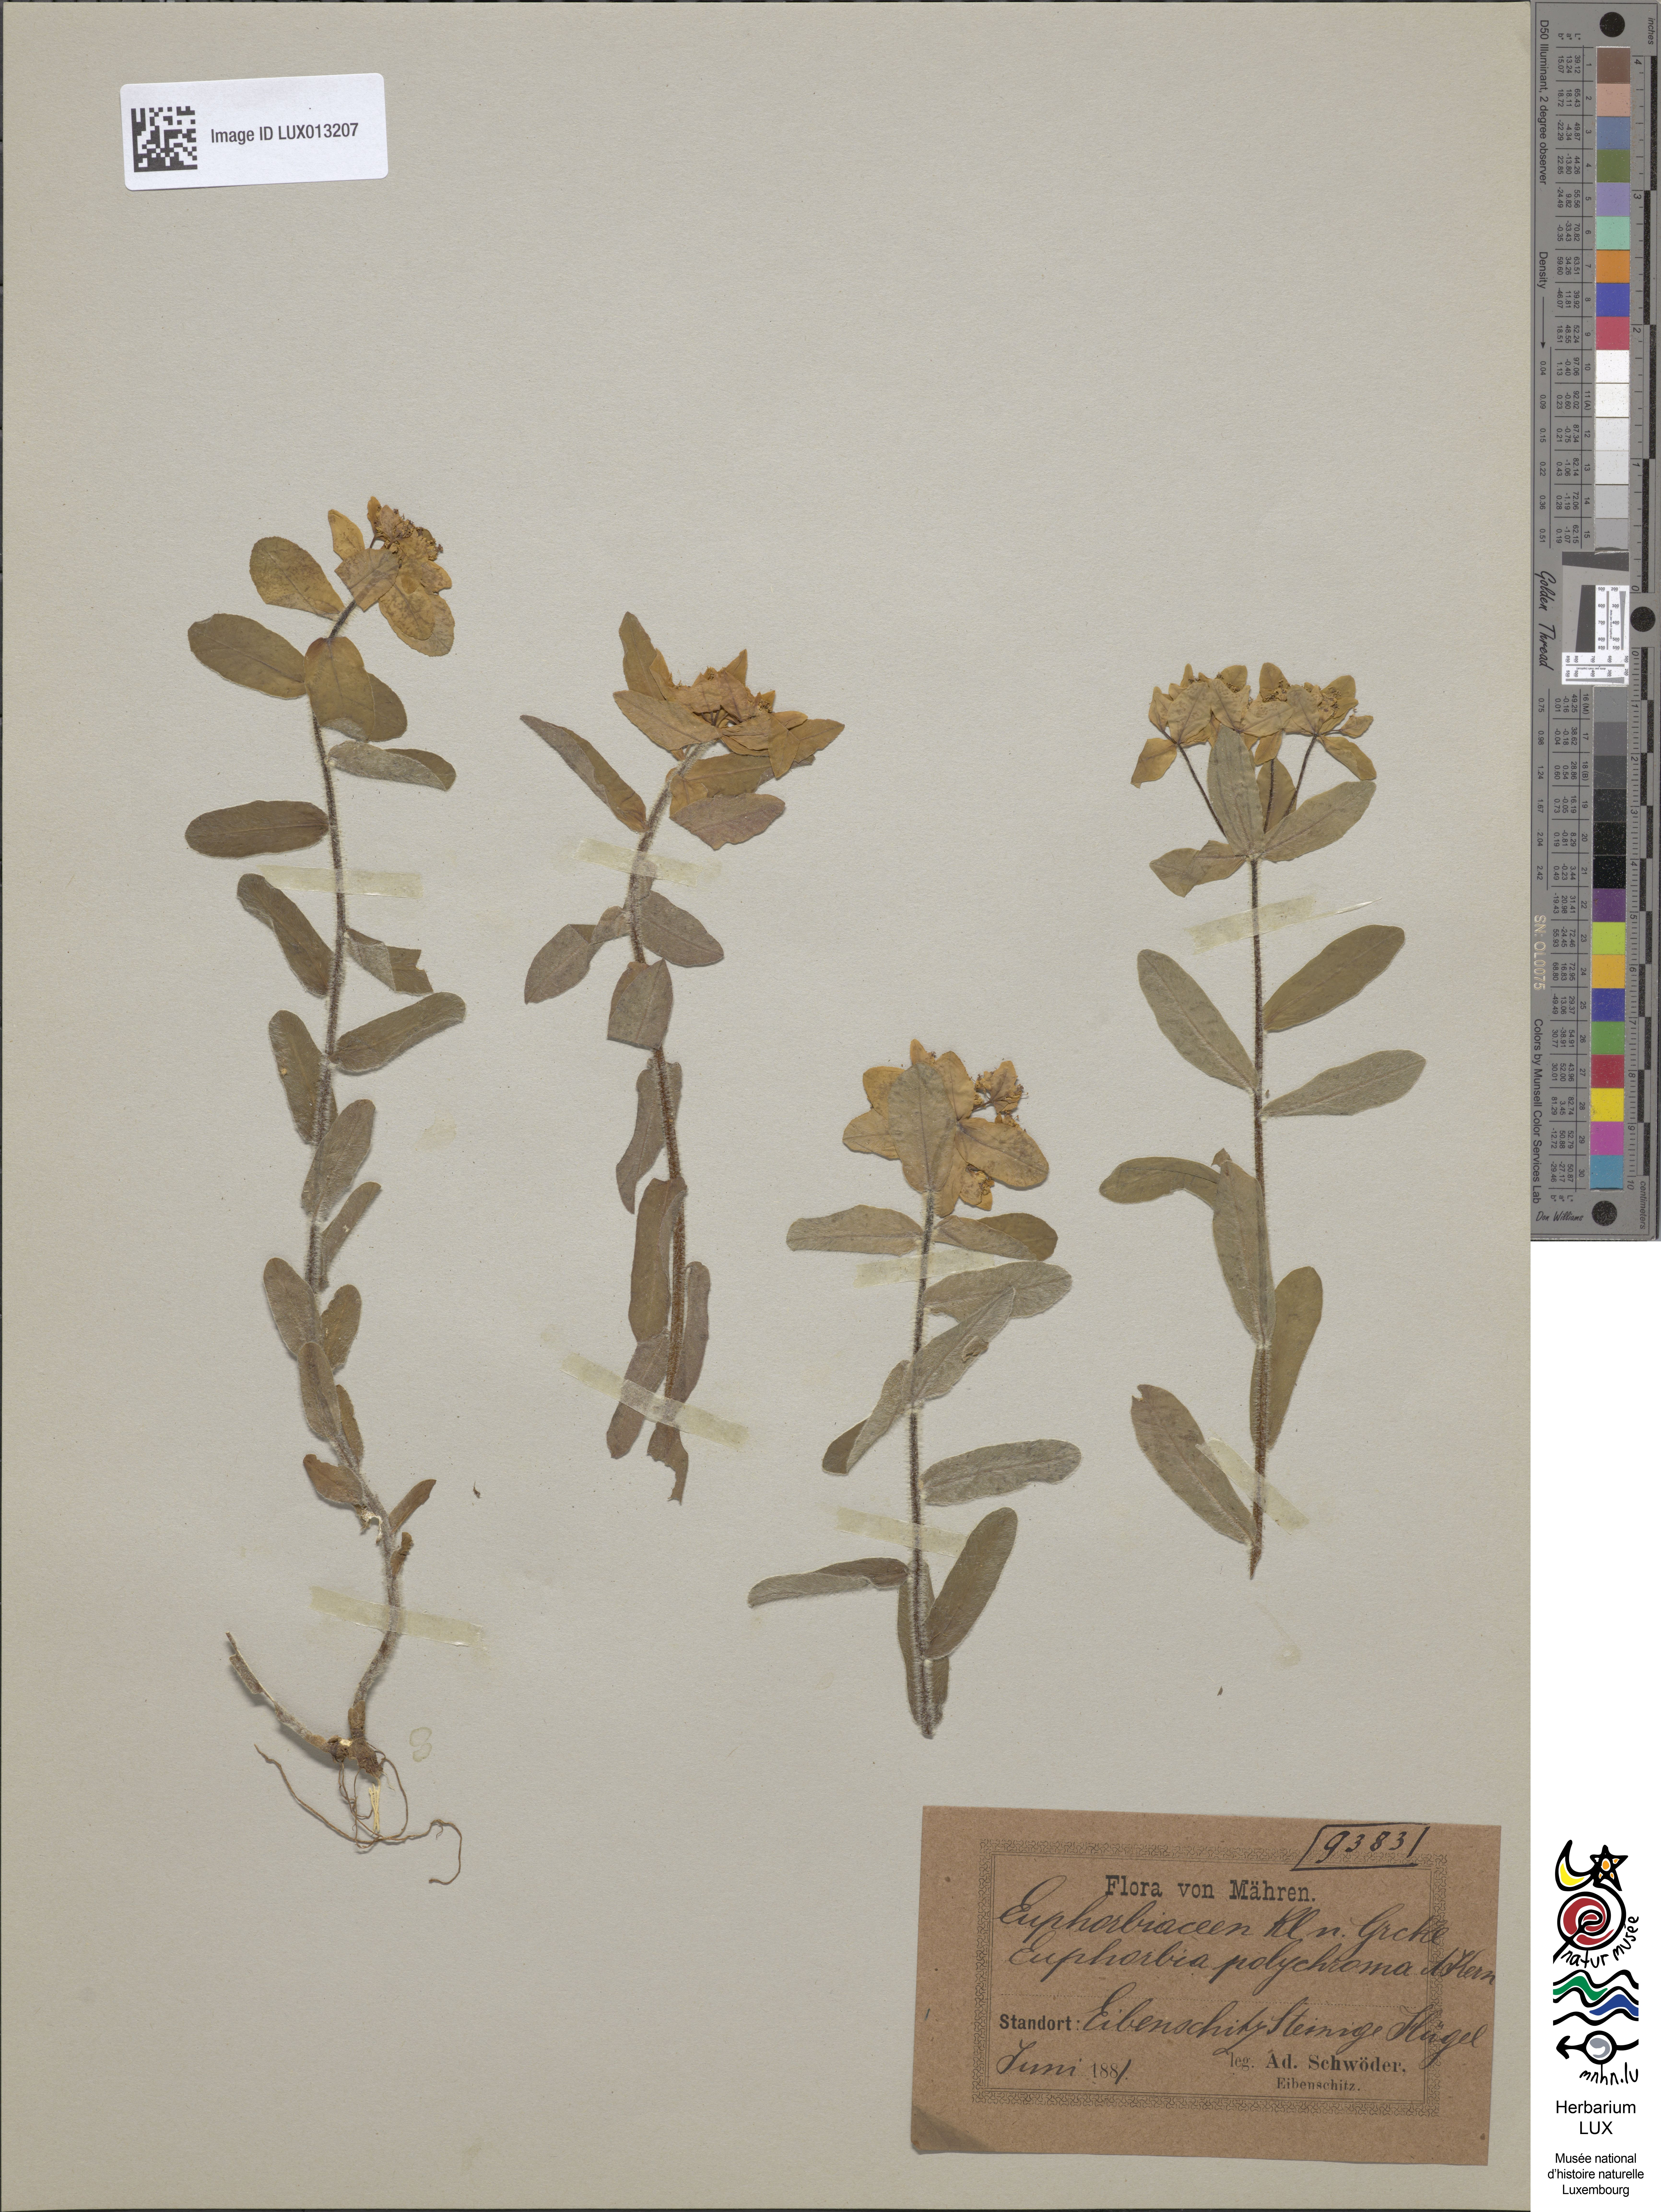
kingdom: Plantae
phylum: Tracheophyta
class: Magnoliopsida
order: Malpighiales
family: Euphorbiaceae
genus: Euphorbia
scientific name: Euphorbia epithymoides
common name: Cushion spurge
